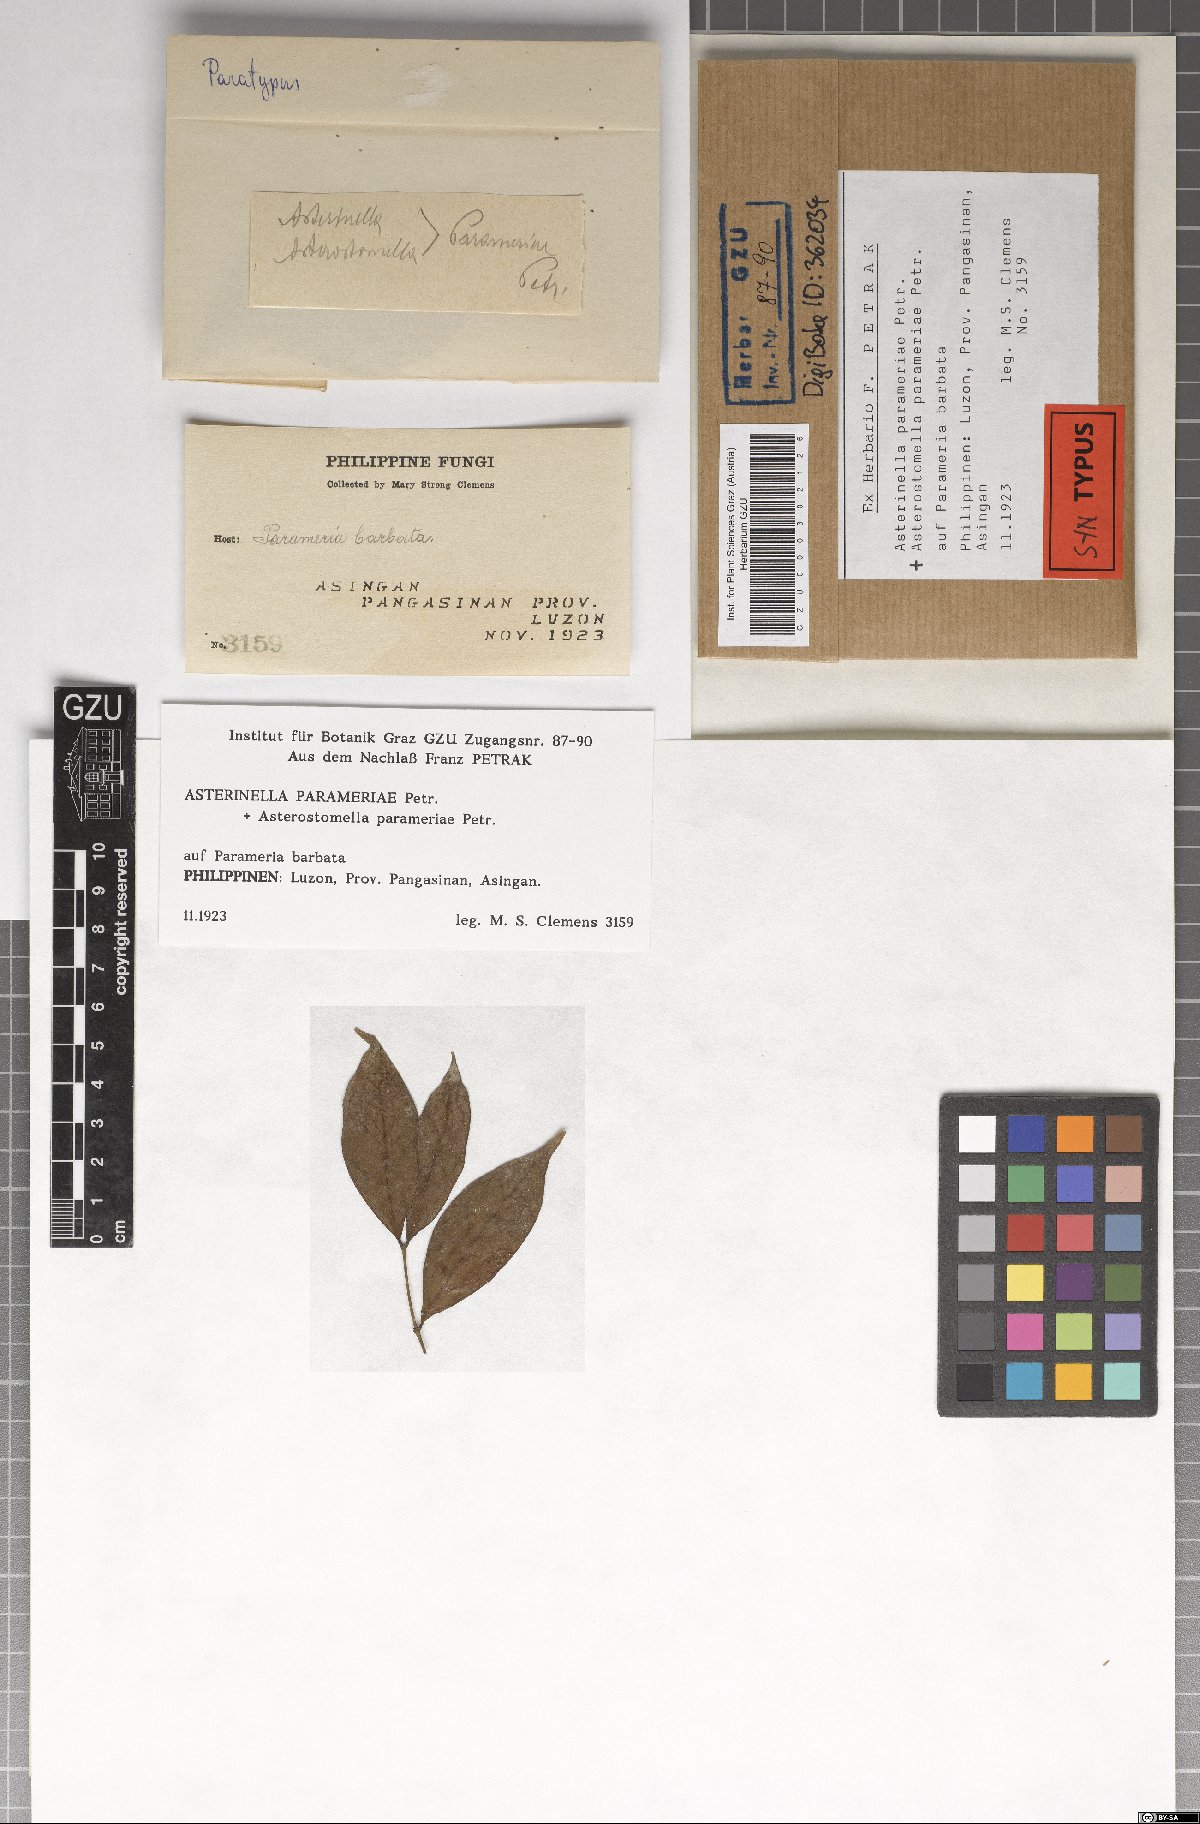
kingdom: Fungi
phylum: Ascomycota
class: Dothideomycetes
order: Microthyriales
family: Microthyriaceae
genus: Asterinella
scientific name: Asterinella parameriae
